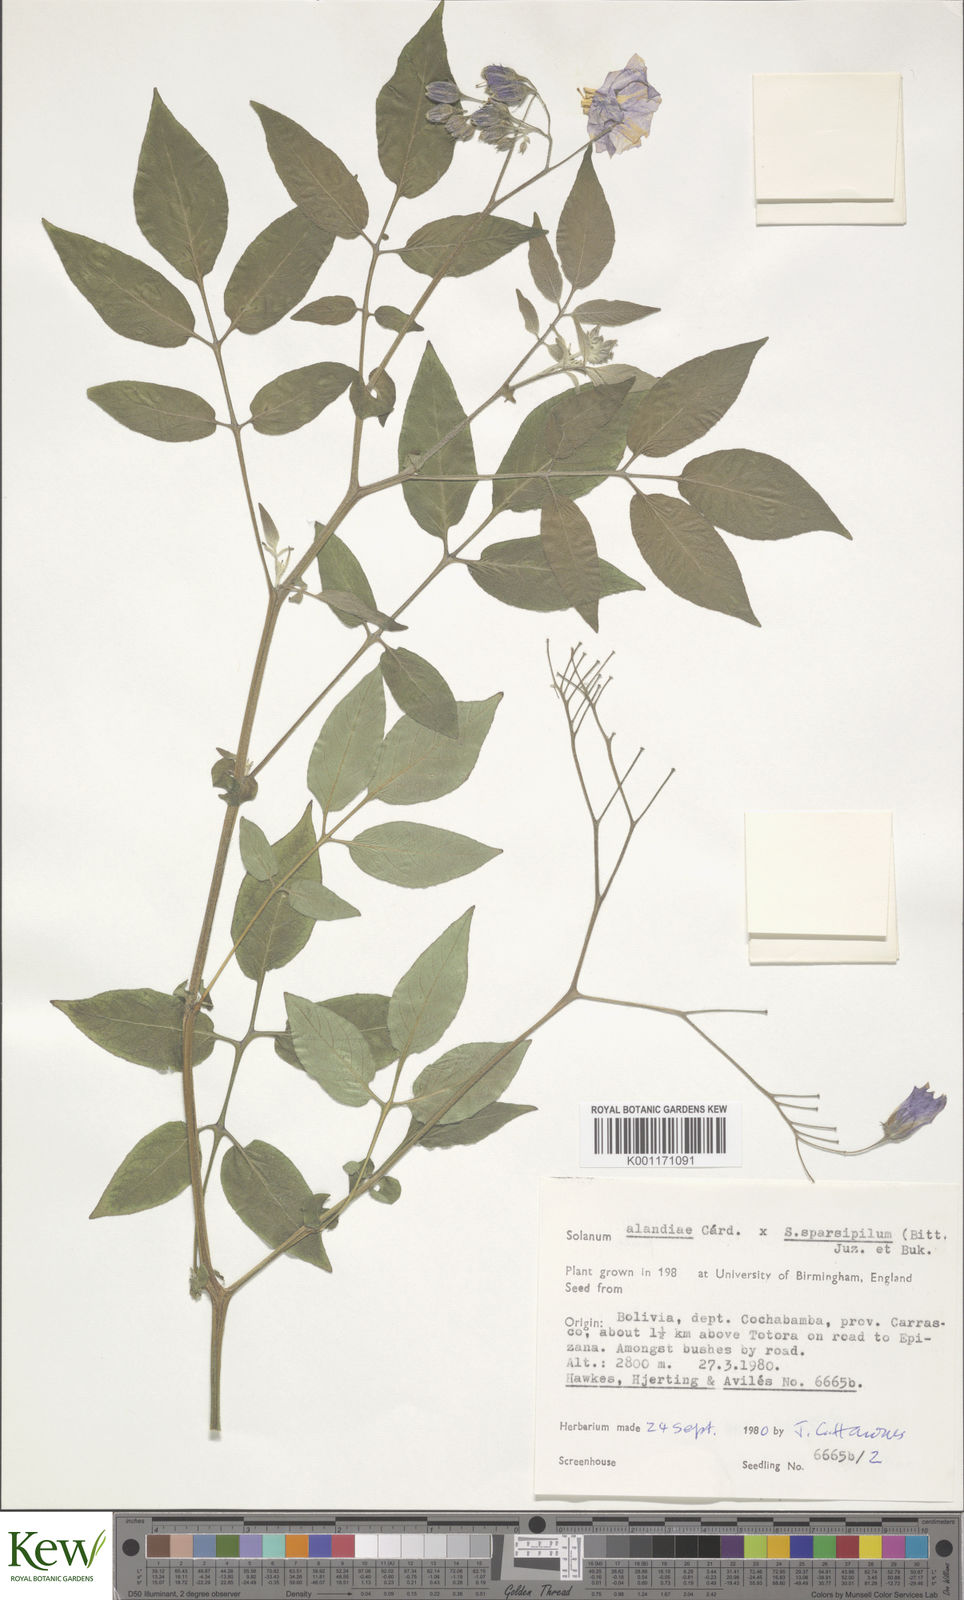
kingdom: Plantae
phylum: Tracheophyta
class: Magnoliopsida
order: Solanales
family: Solanaceae
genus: Solanum
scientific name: Solanum
